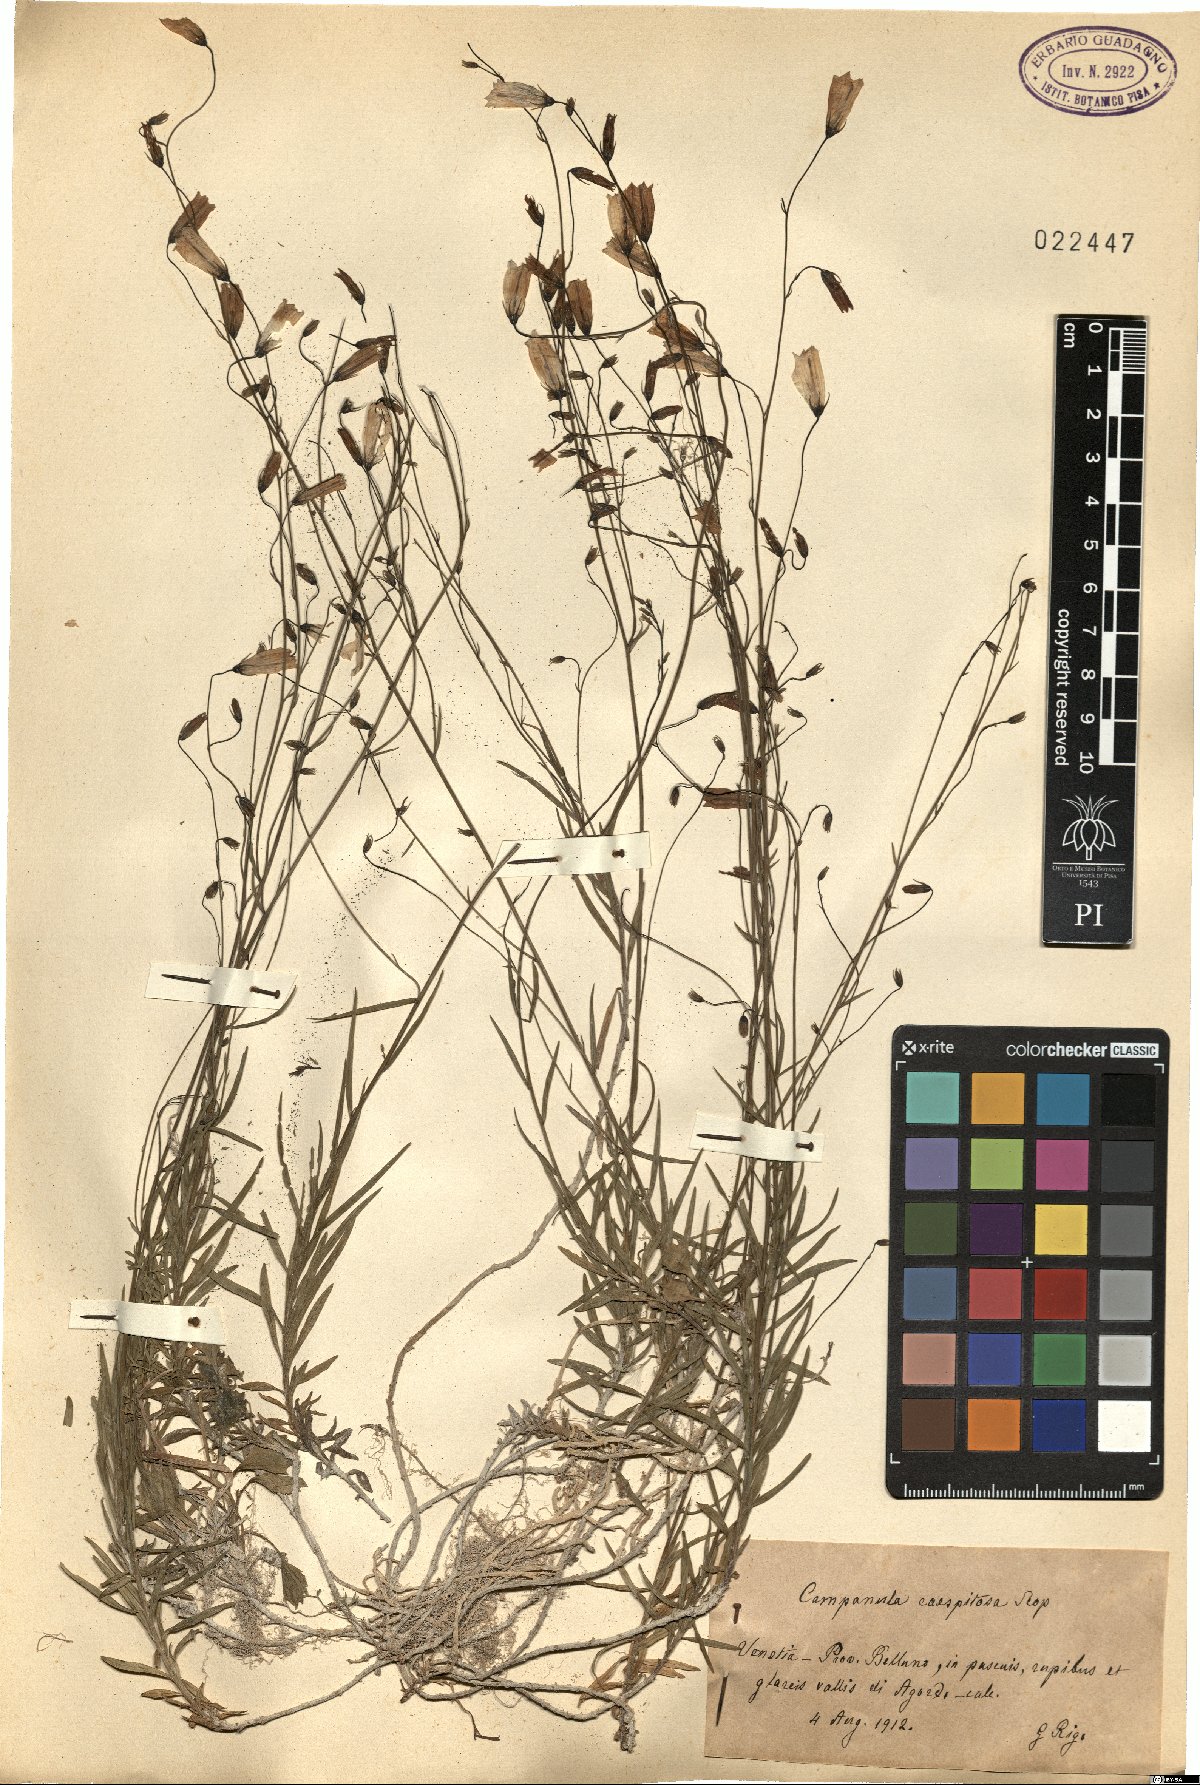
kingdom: Plantae
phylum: Tracheophyta
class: Magnoliopsida
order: Asterales
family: Campanulaceae
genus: Campanula
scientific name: Campanula caespitosa
